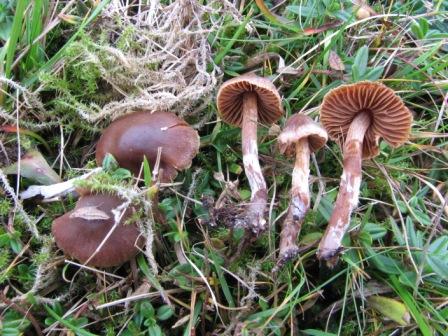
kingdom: Fungi
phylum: Basidiomycota
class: Agaricomycetes
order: Agaricales
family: Cortinariaceae
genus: Cortinarius
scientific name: Cortinarius desertorum
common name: skær slørhat
